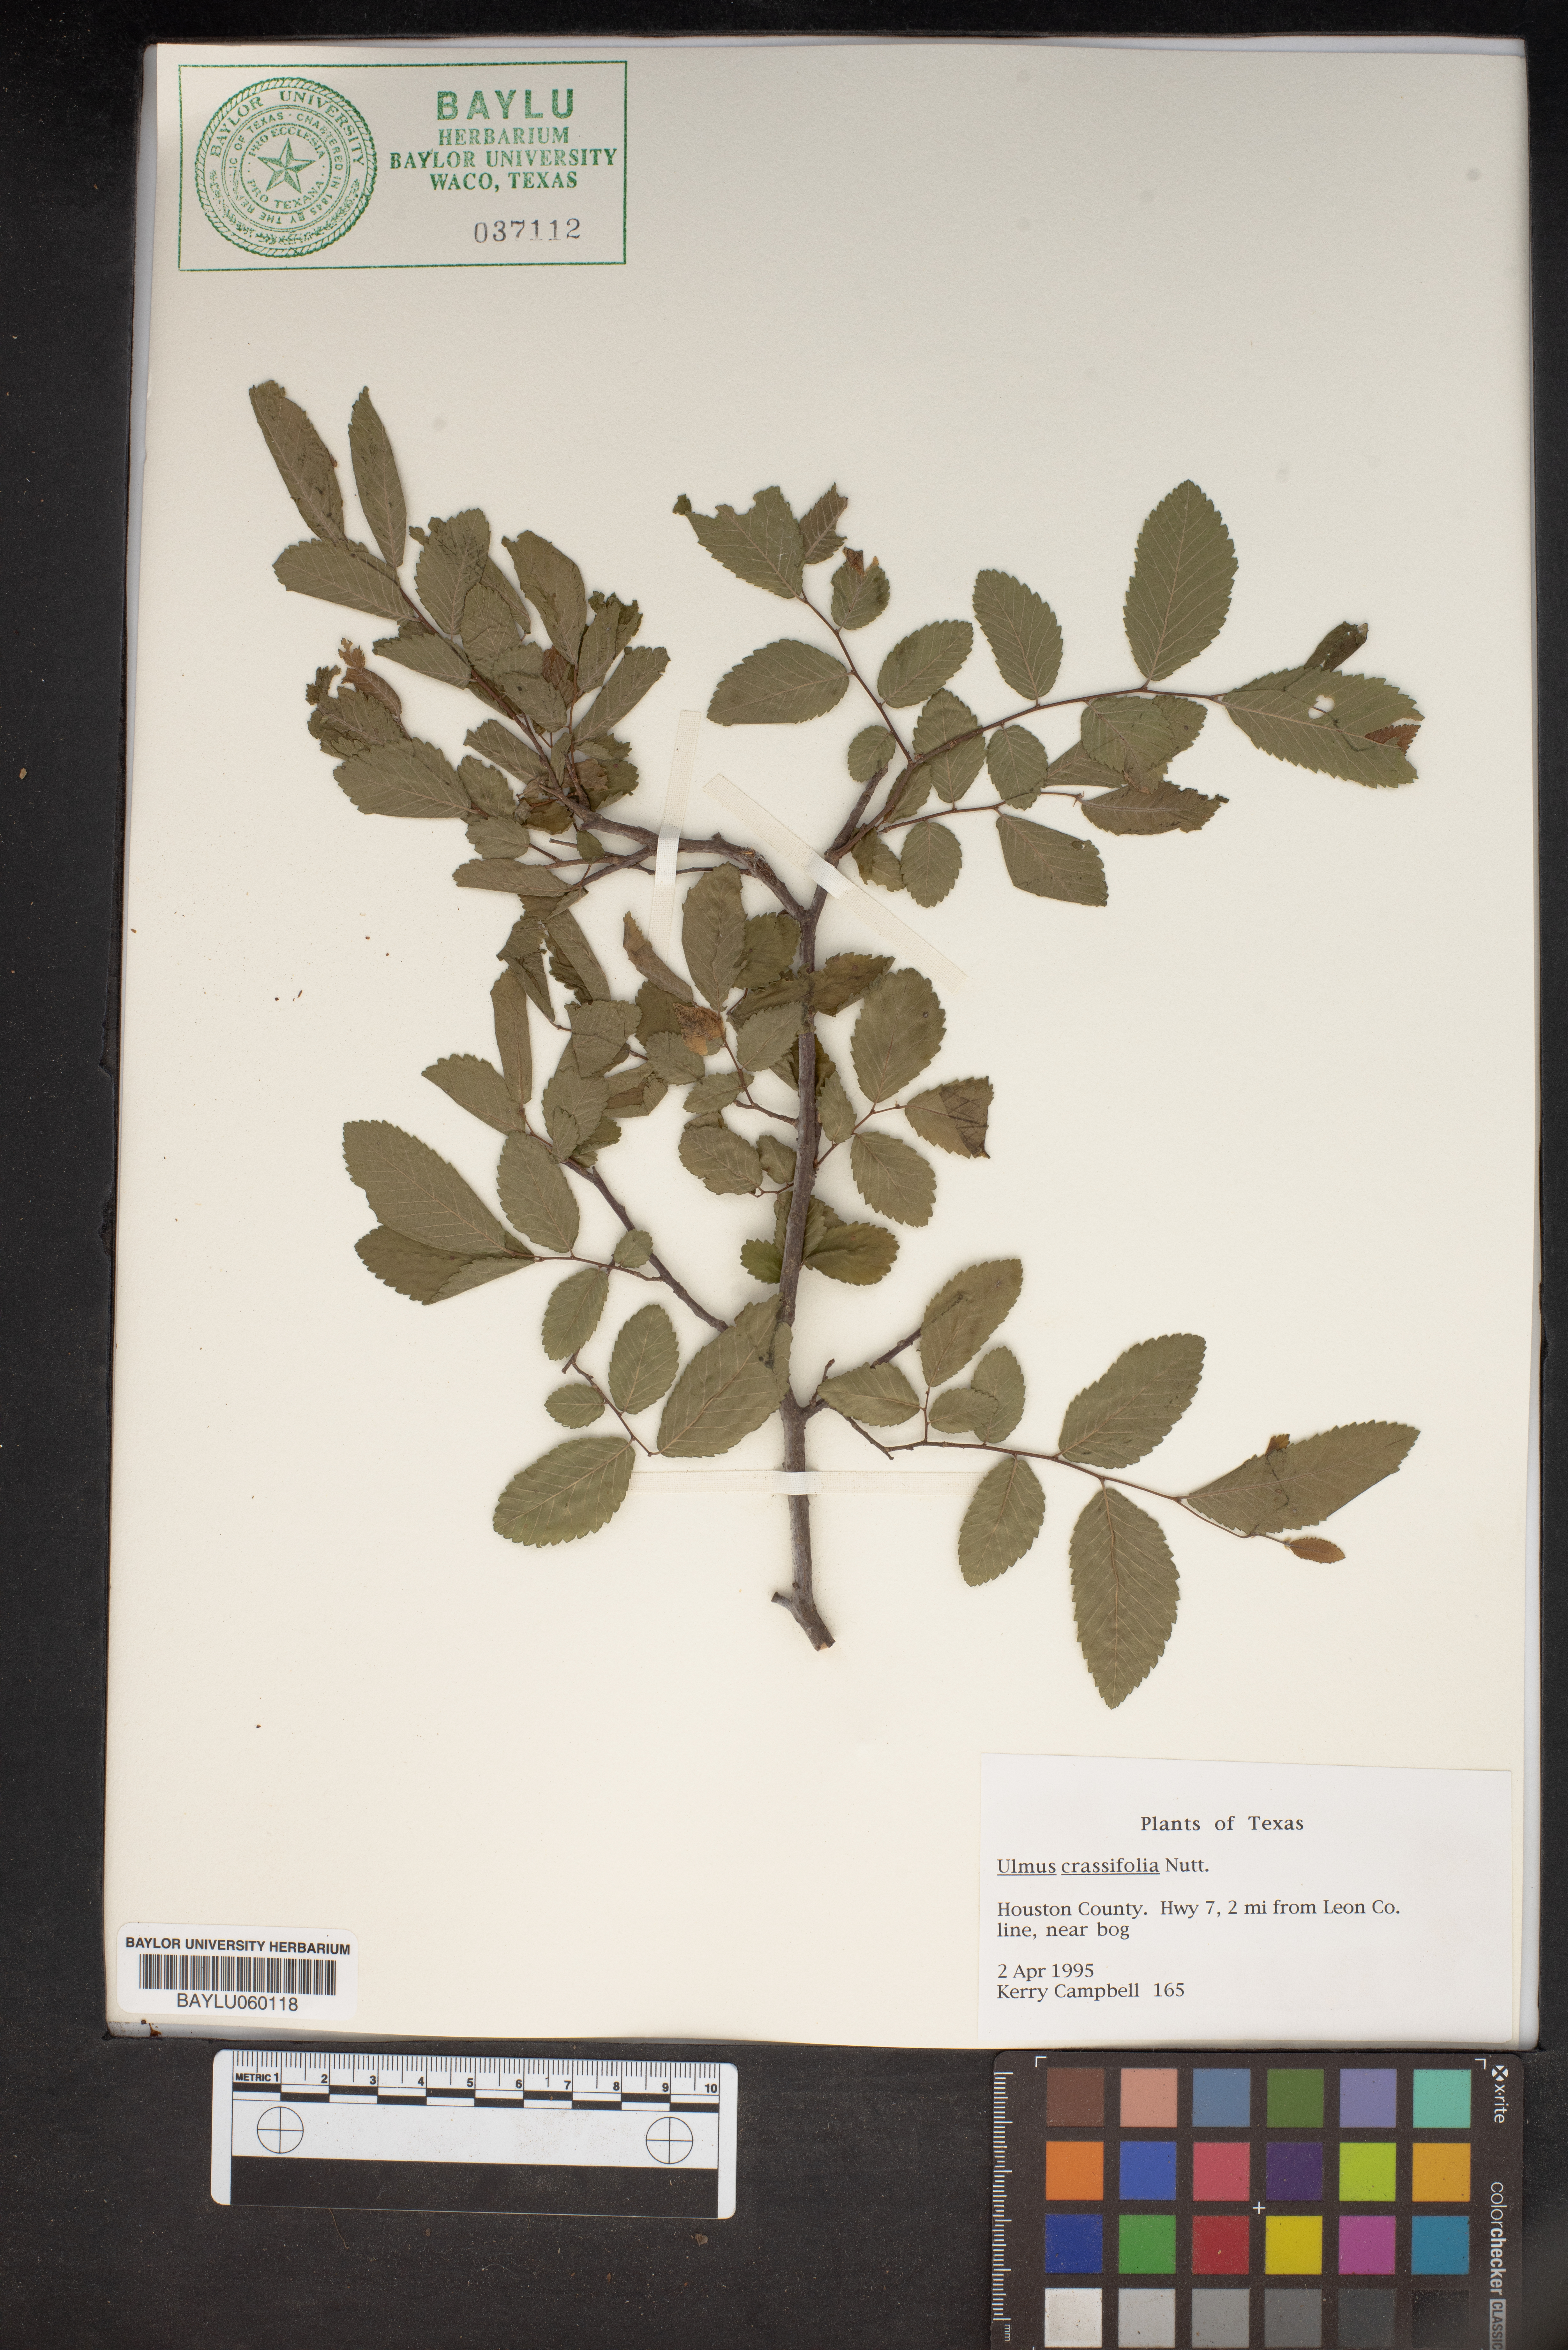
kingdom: Plantae
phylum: Tracheophyta
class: Magnoliopsida
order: Rosales
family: Ulmaceae
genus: Ulmus
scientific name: Ulmus crassifolia
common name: Basket elm
